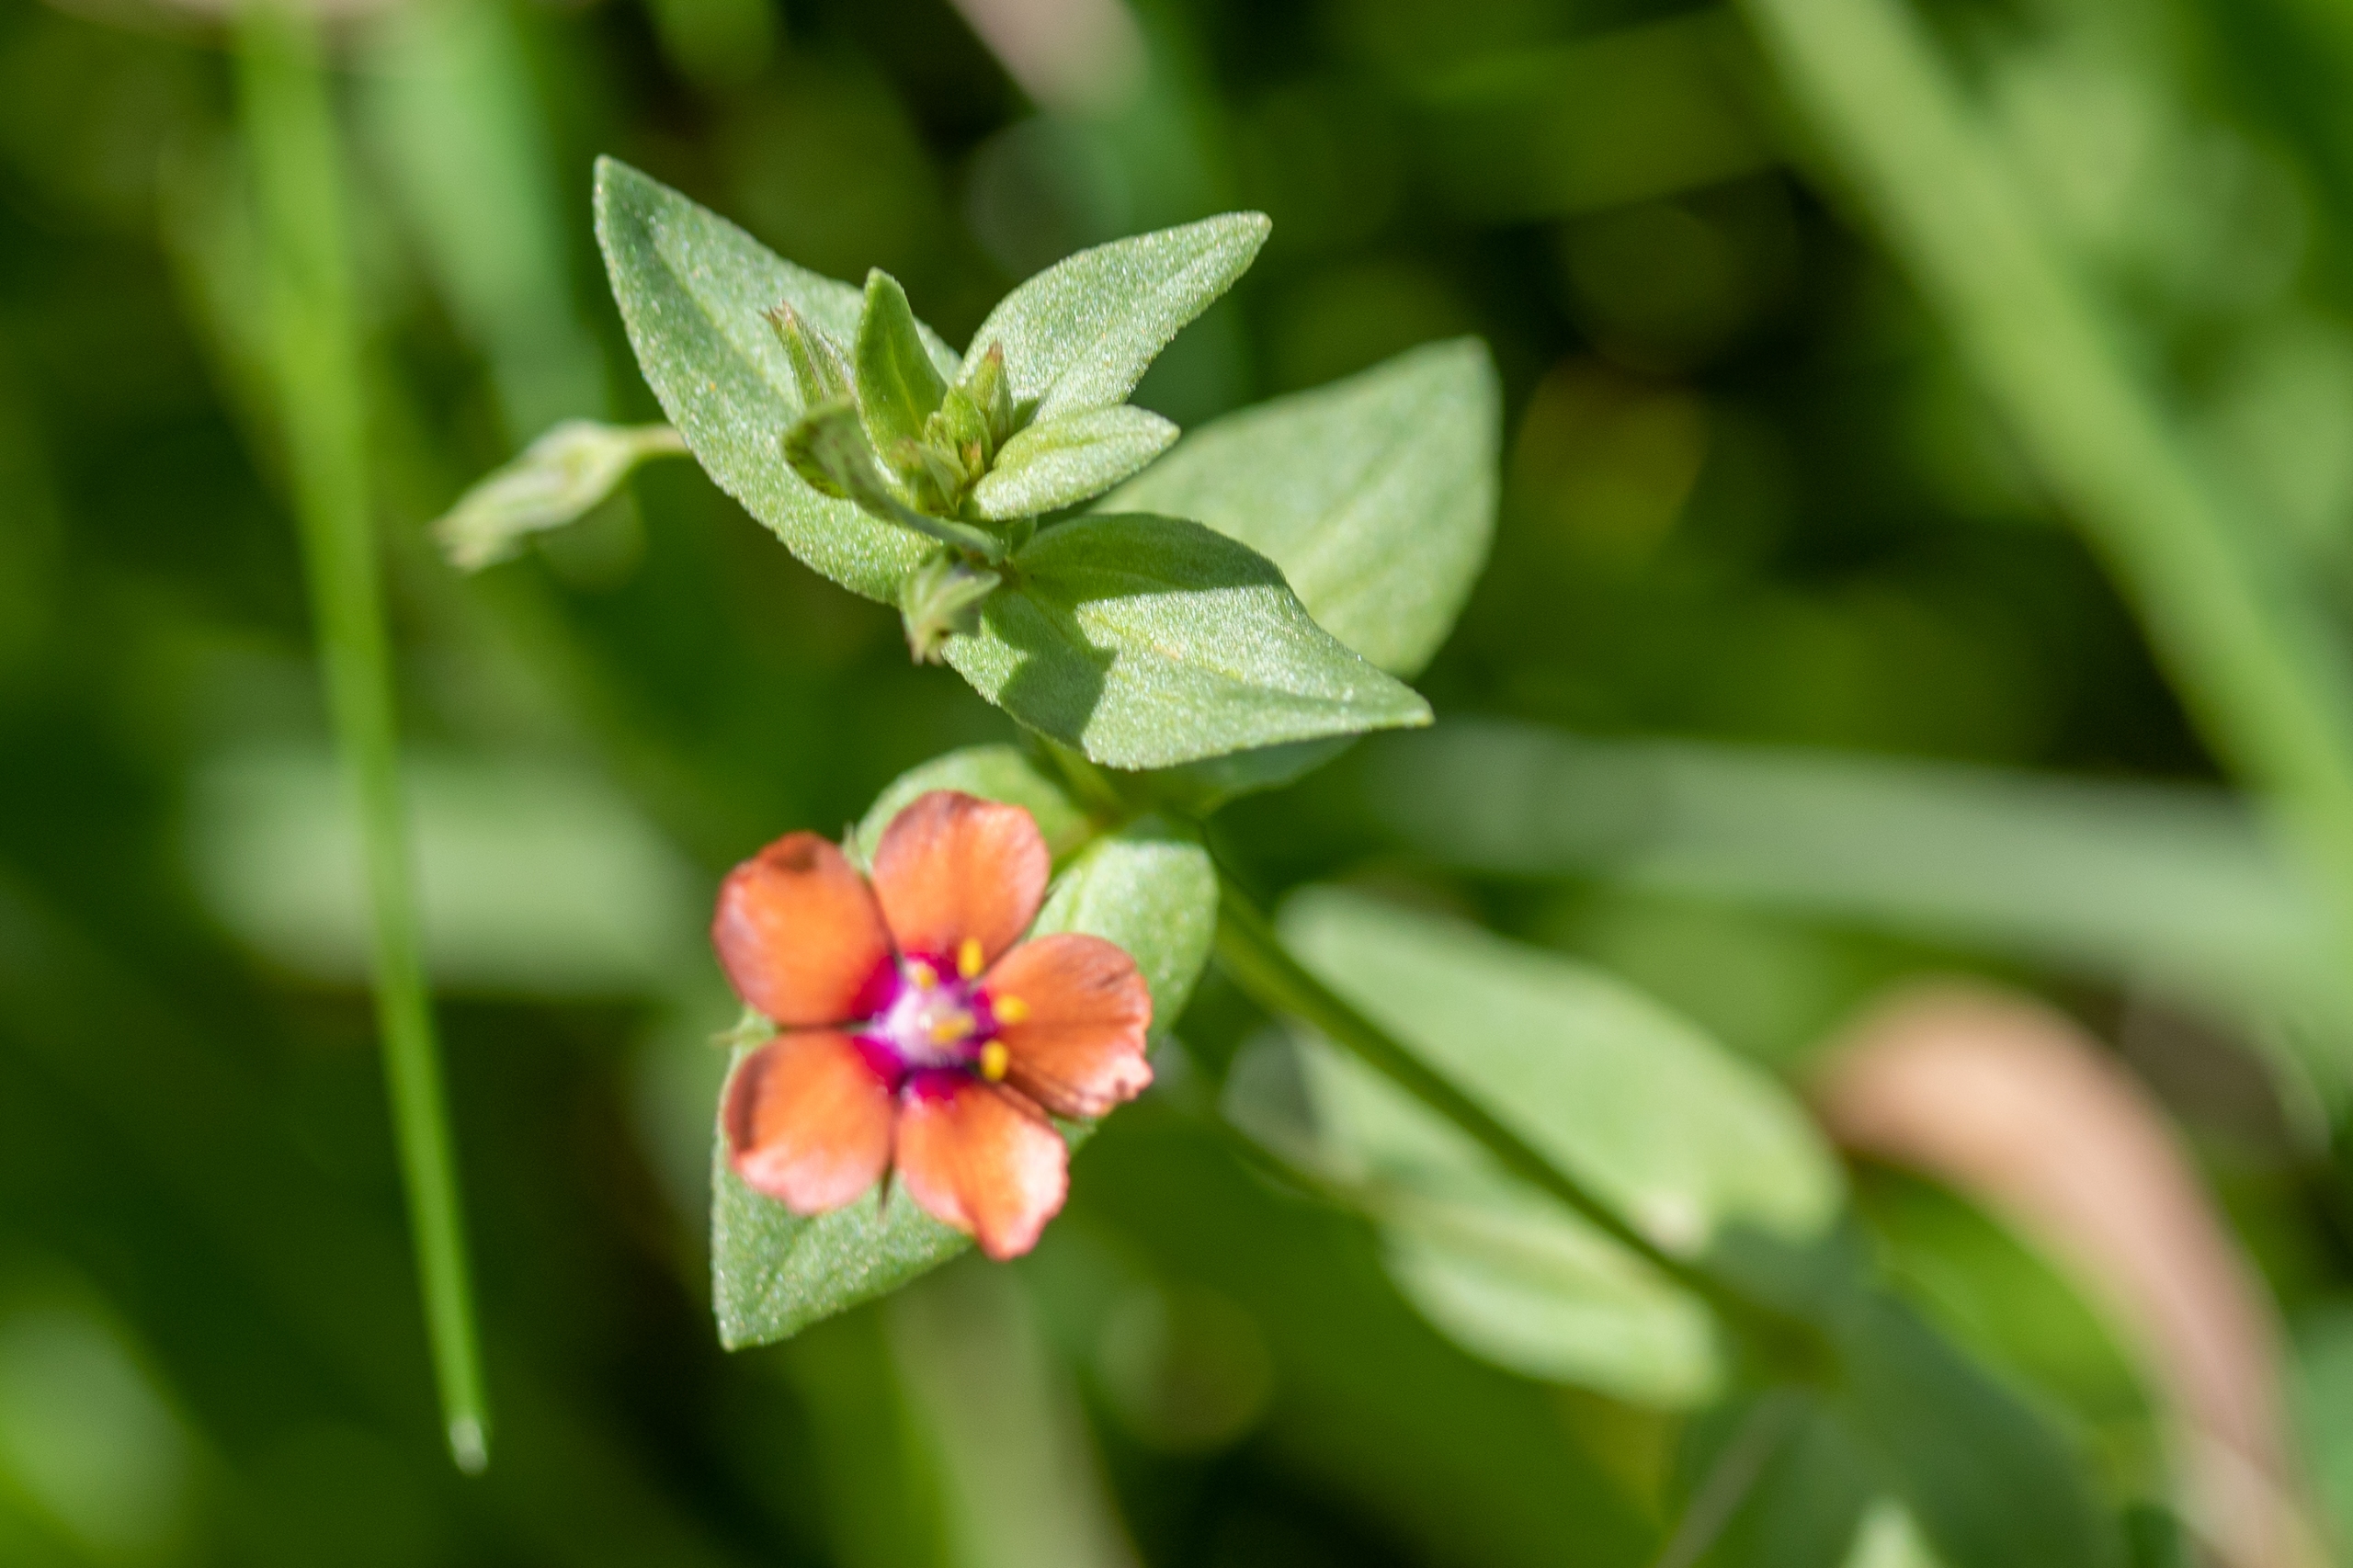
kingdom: Plantae
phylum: Tracheophyta
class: Magnoliopsida
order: Ericales
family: Primulaceae
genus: Lysimachia
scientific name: Lysimachia arvensis
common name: Rød arve
